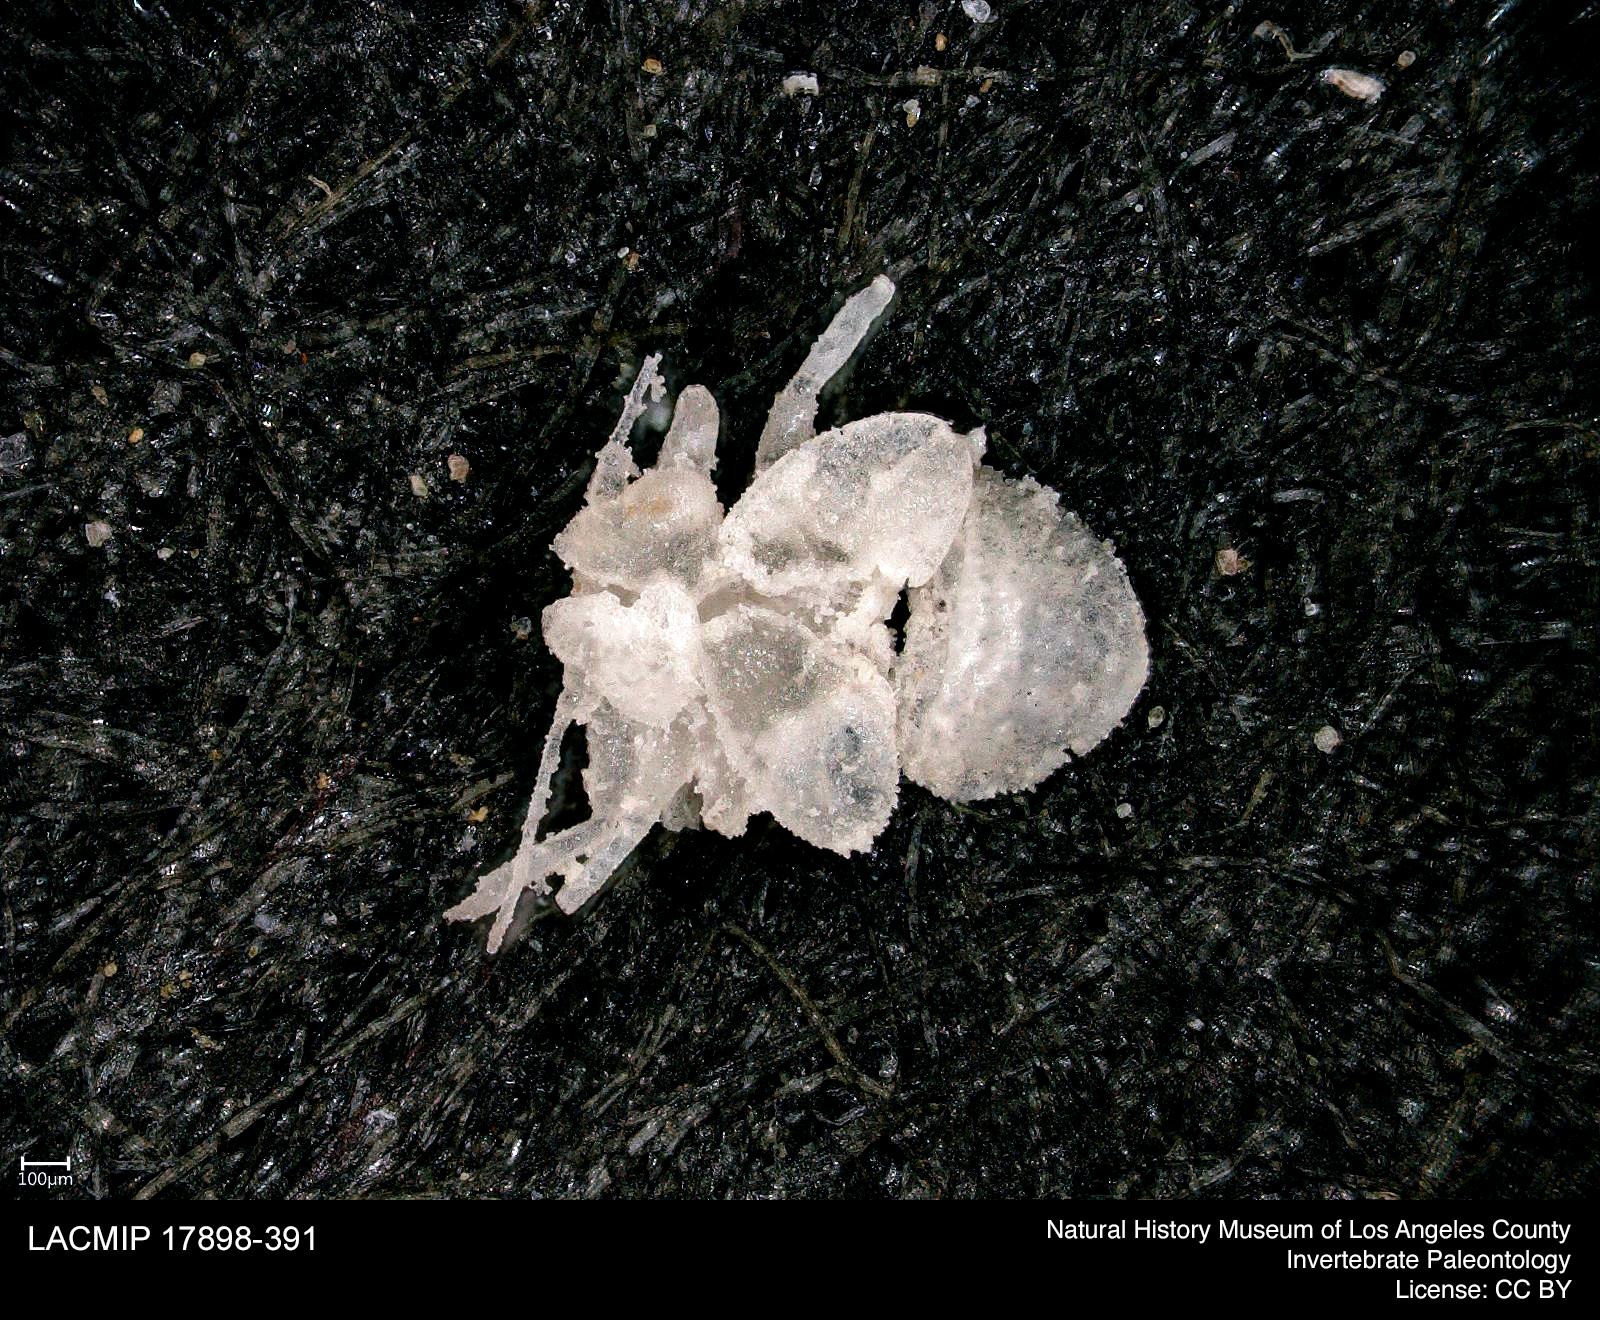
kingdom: Animalia
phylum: Arthropoda
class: Insecta
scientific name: Insecta
